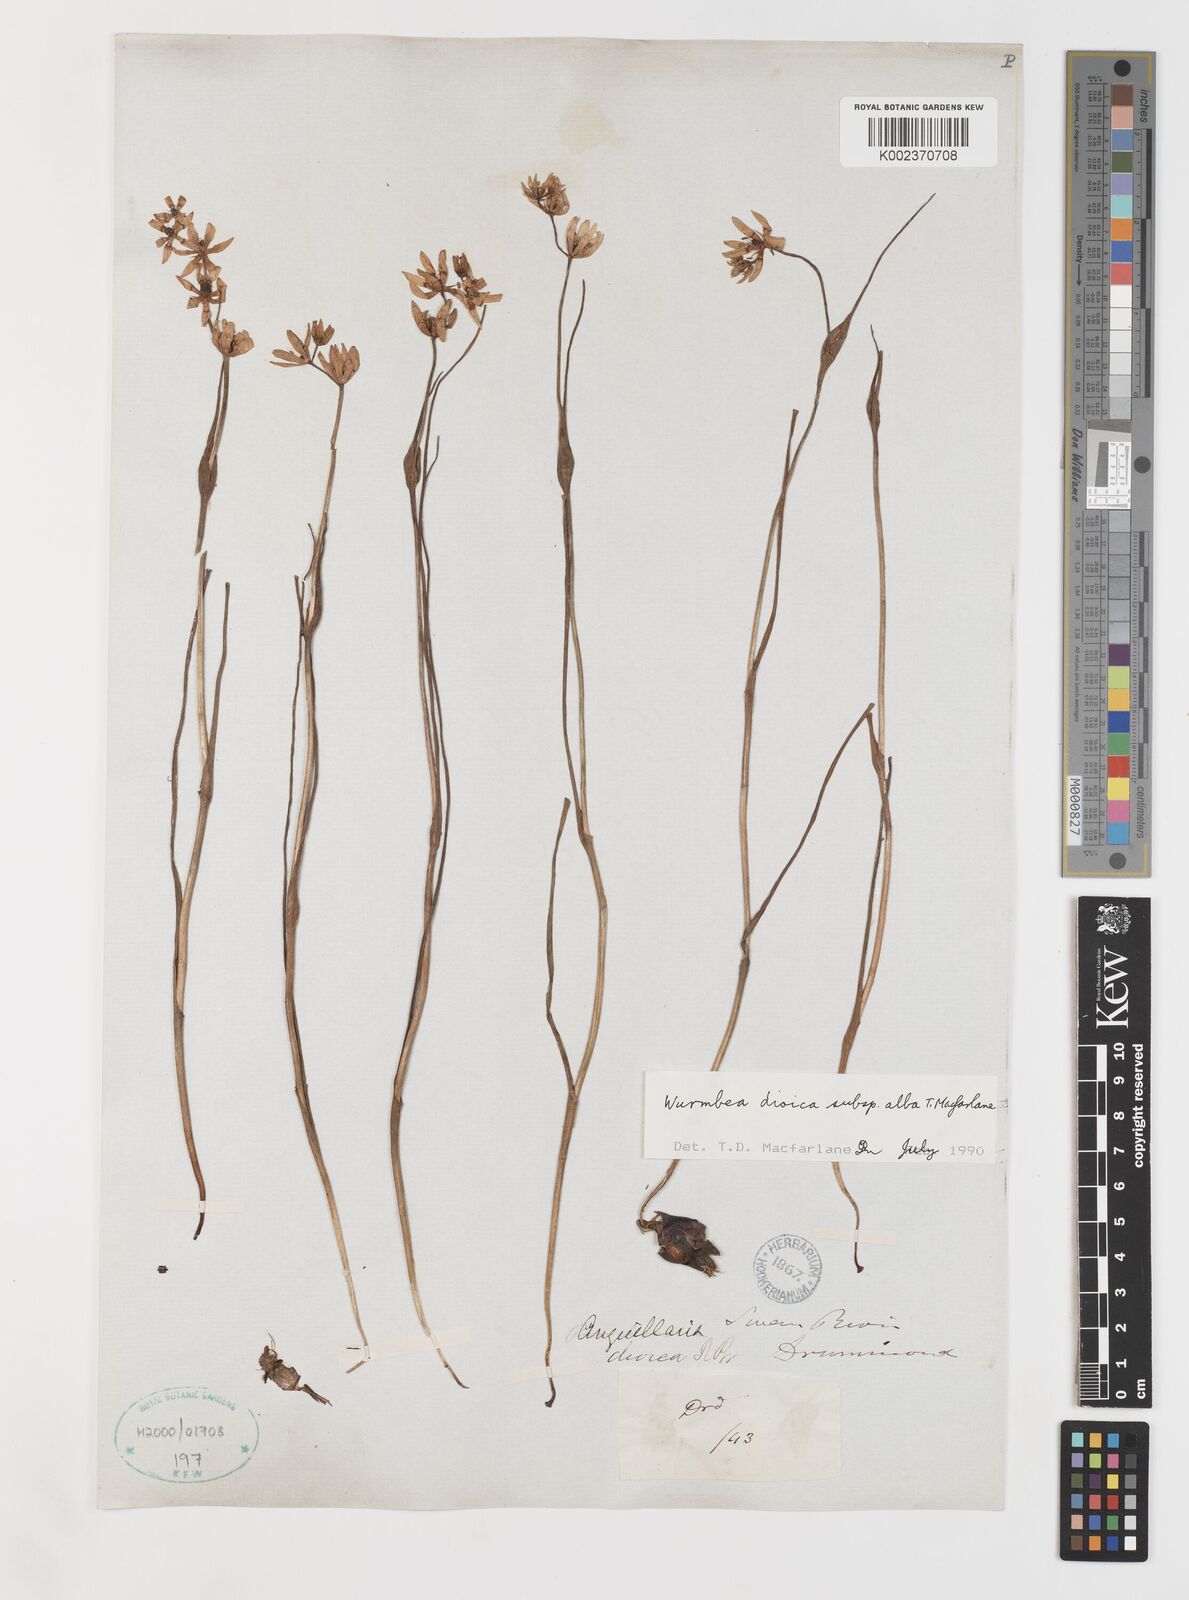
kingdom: Plantae
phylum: Tracheophyta
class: Liliopsida
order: Liliales
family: Colchicaceae
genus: Wurmbea
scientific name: Wurmbea dioica
